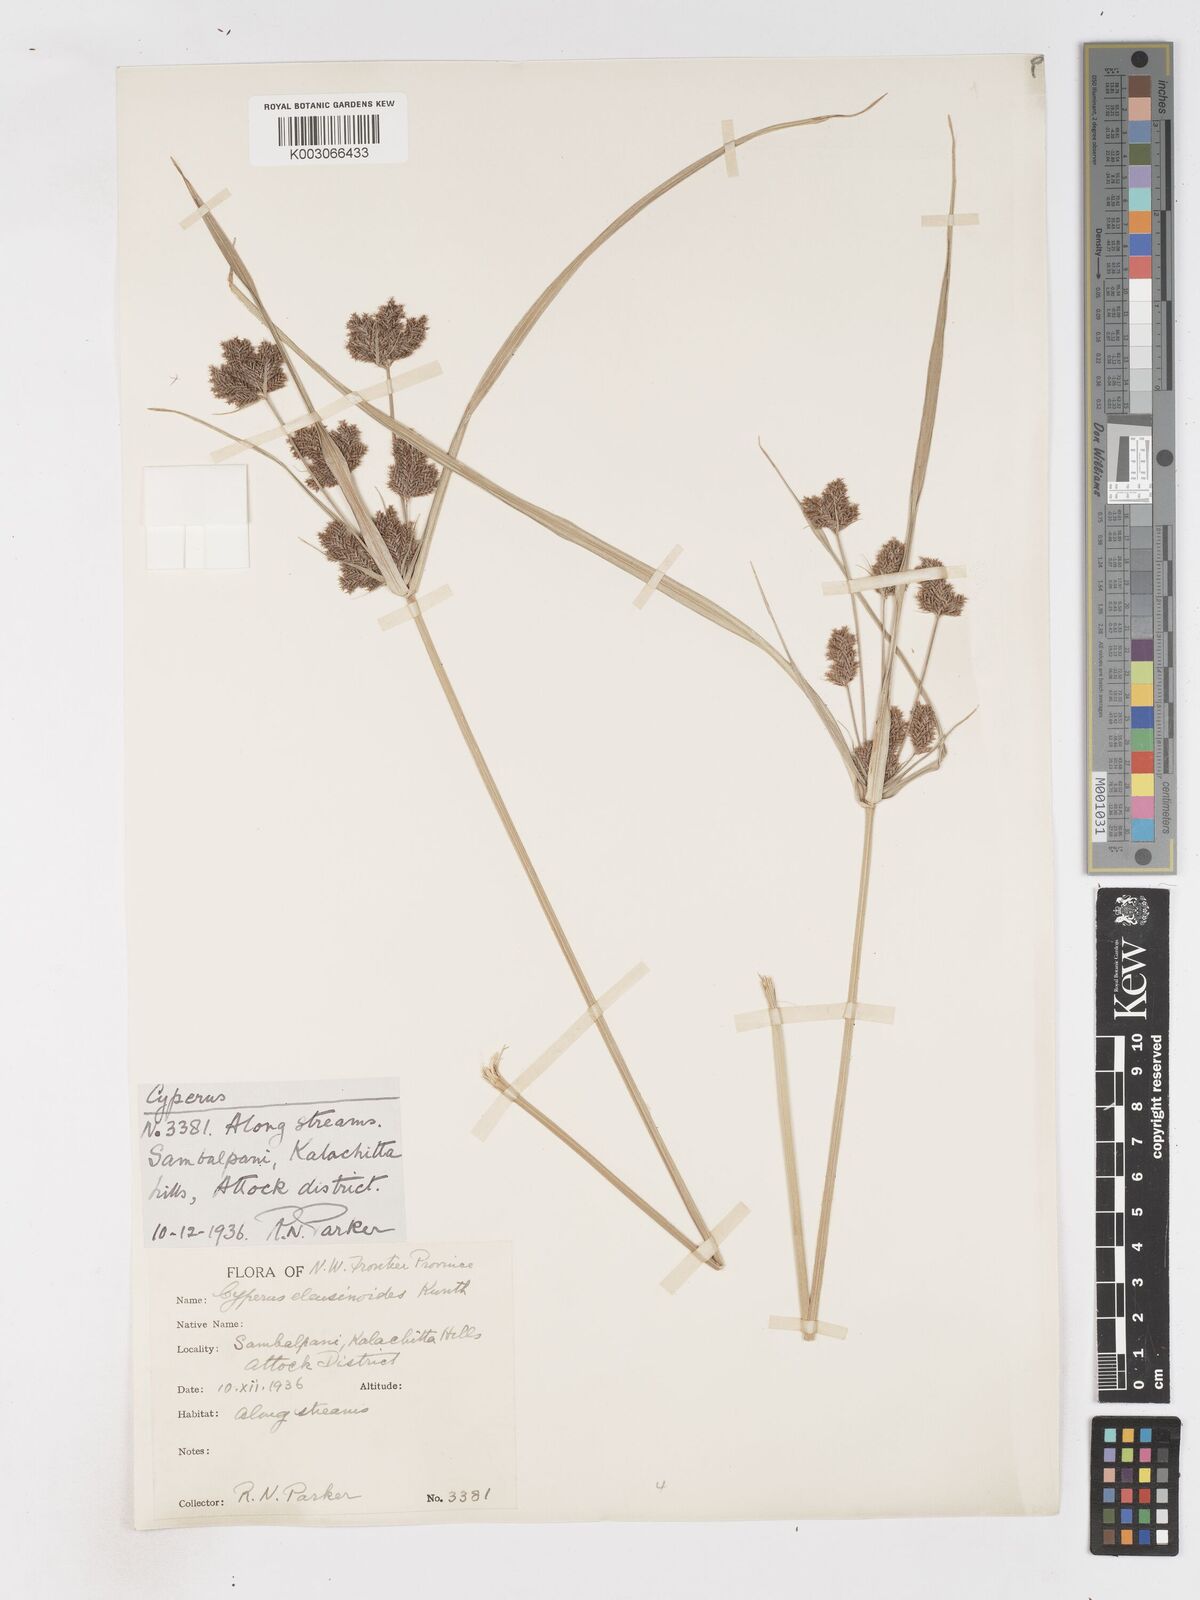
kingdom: Plantae
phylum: Tracheophyta
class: Liliopsida
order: Poales
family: Cyperaceae
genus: Cyperus
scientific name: Cyperus nutans
